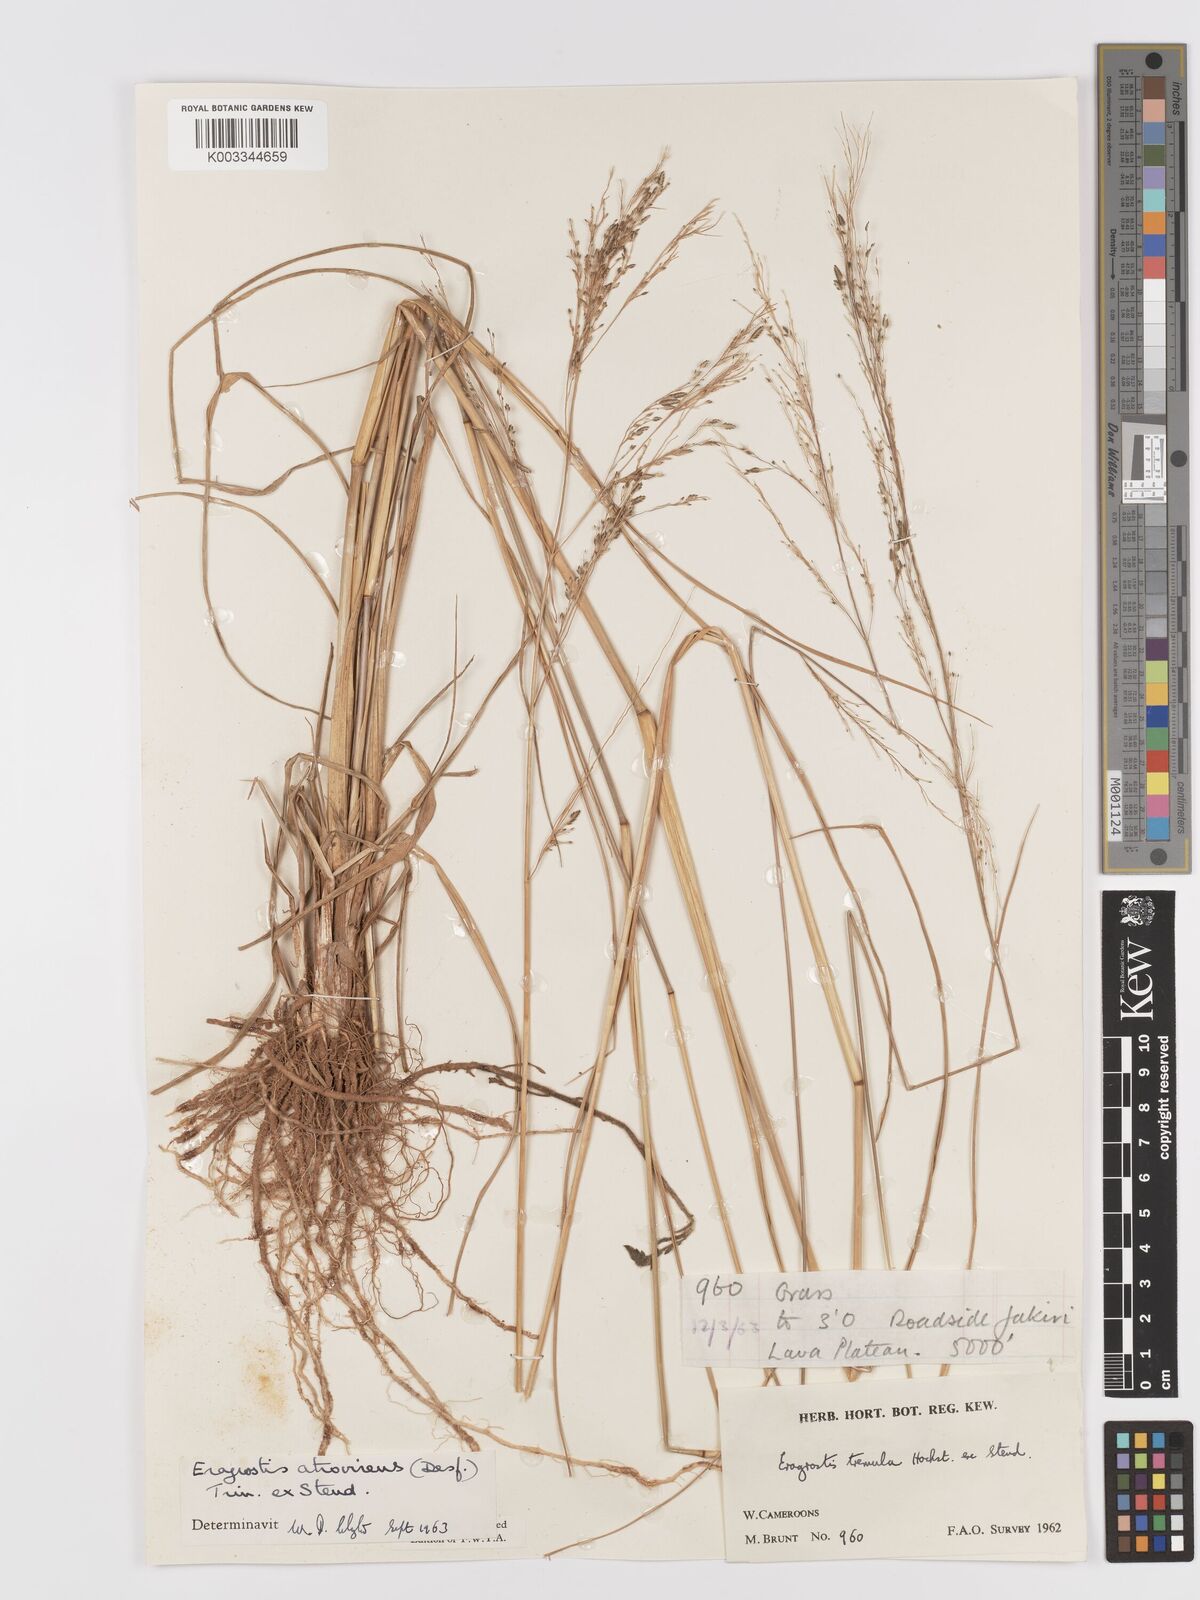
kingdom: Plantae
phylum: Tracheophyta
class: Liliopsida
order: Poales
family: Poaceae
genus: Eragrostis
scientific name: Eragrostis atrovirens
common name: Thalia lovegrass
